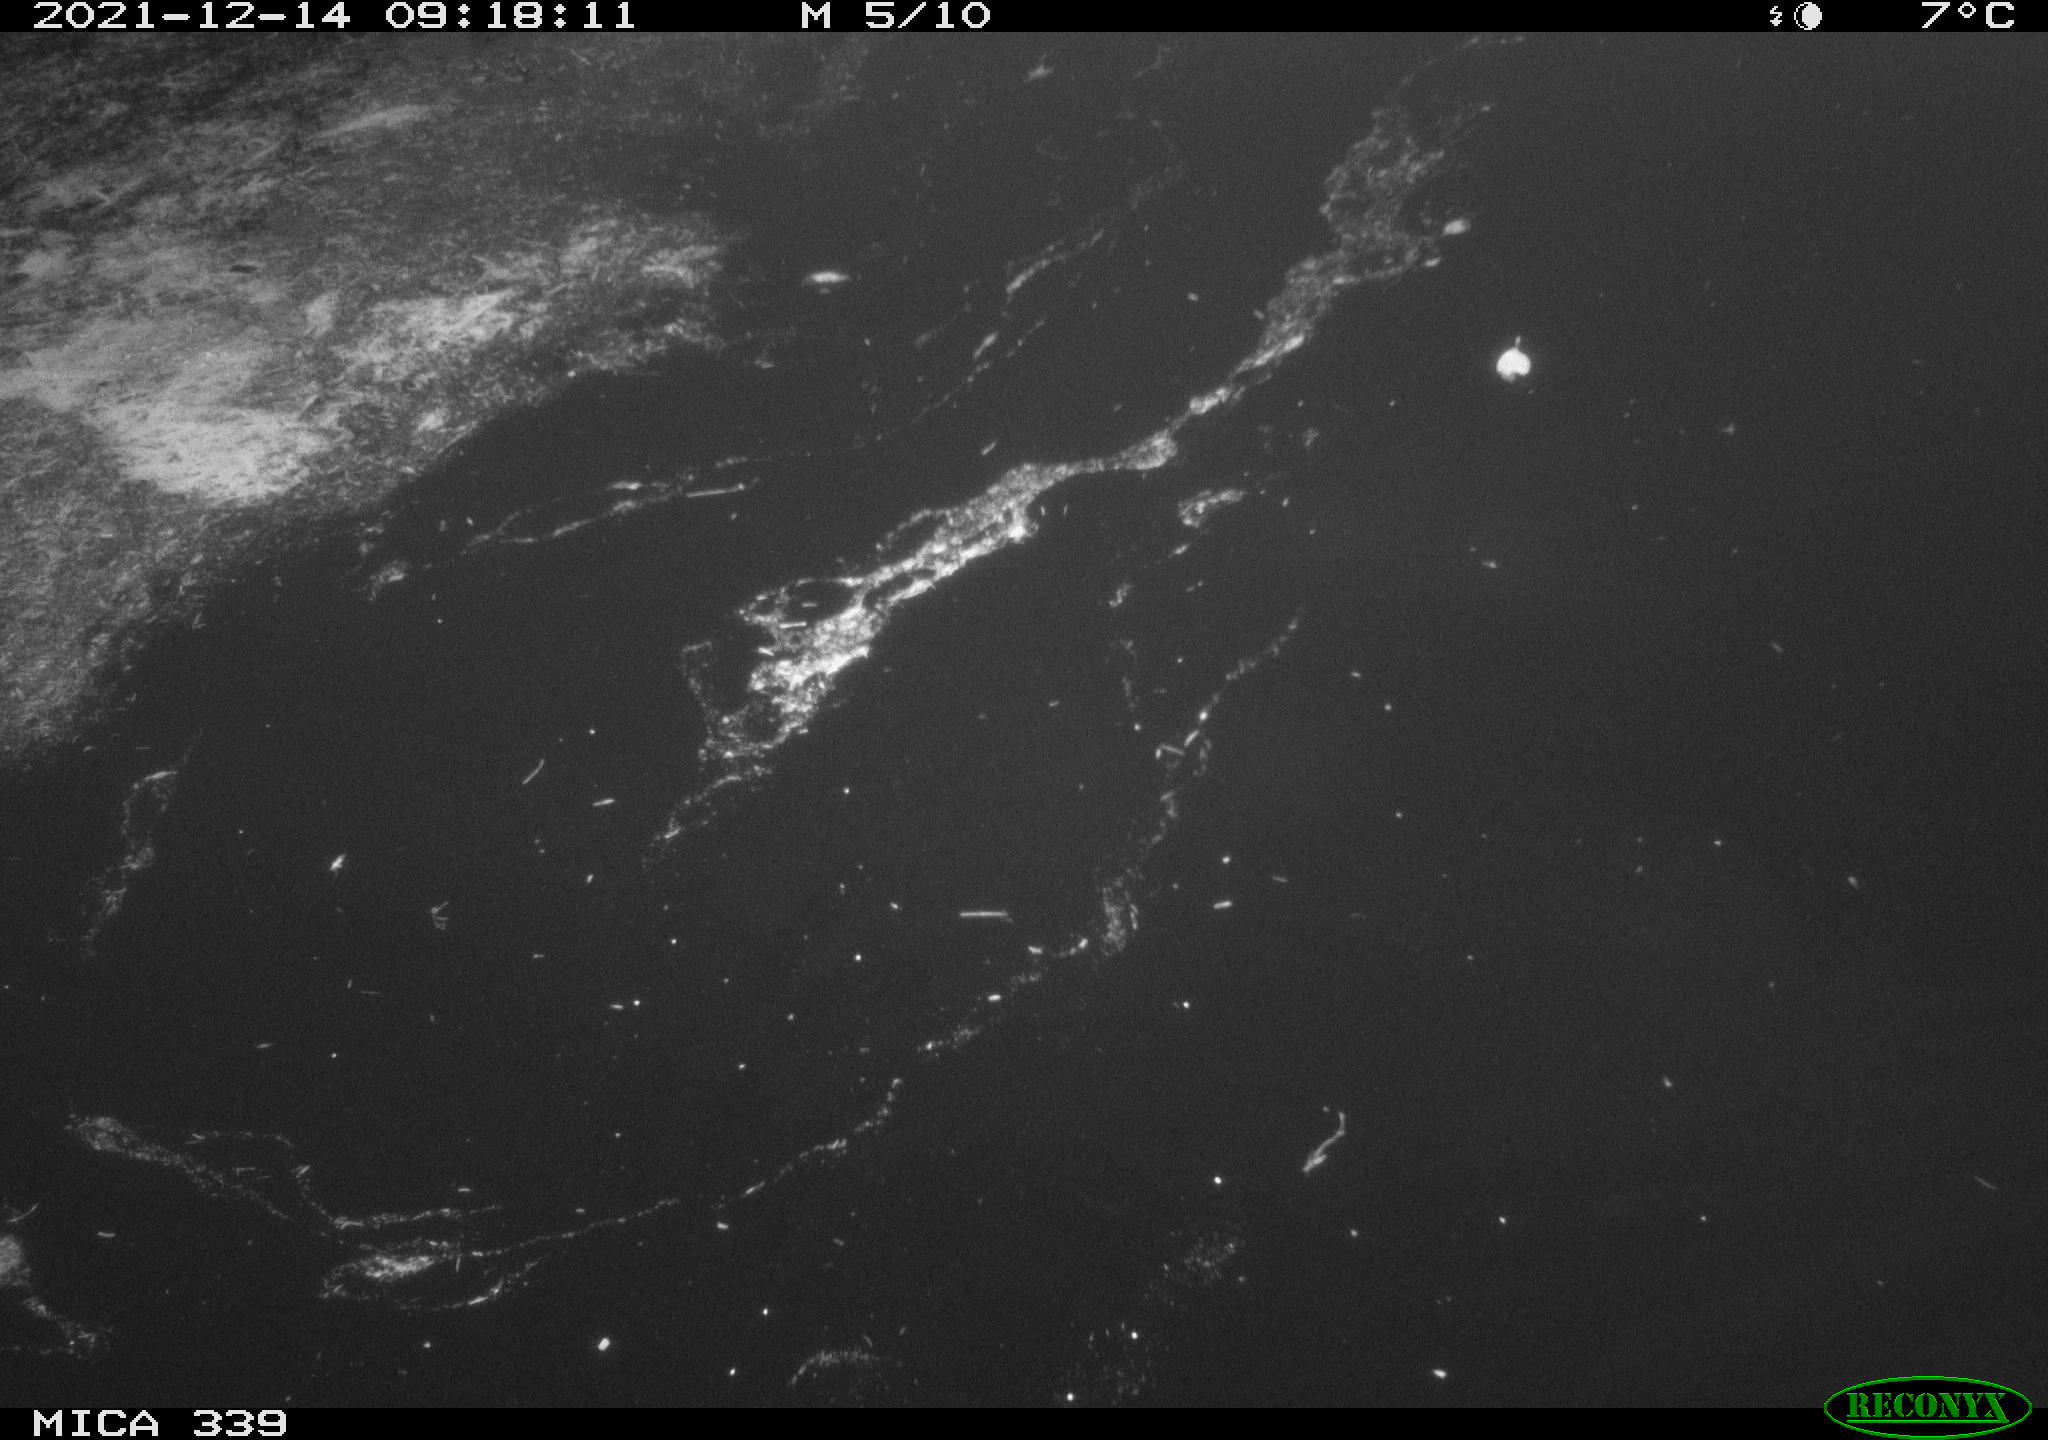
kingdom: Animalia
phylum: Chordata
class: Aves
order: Gruiformes
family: Rallidae
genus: Gallinula
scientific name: Gallinula chloropus
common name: Common moorhen
